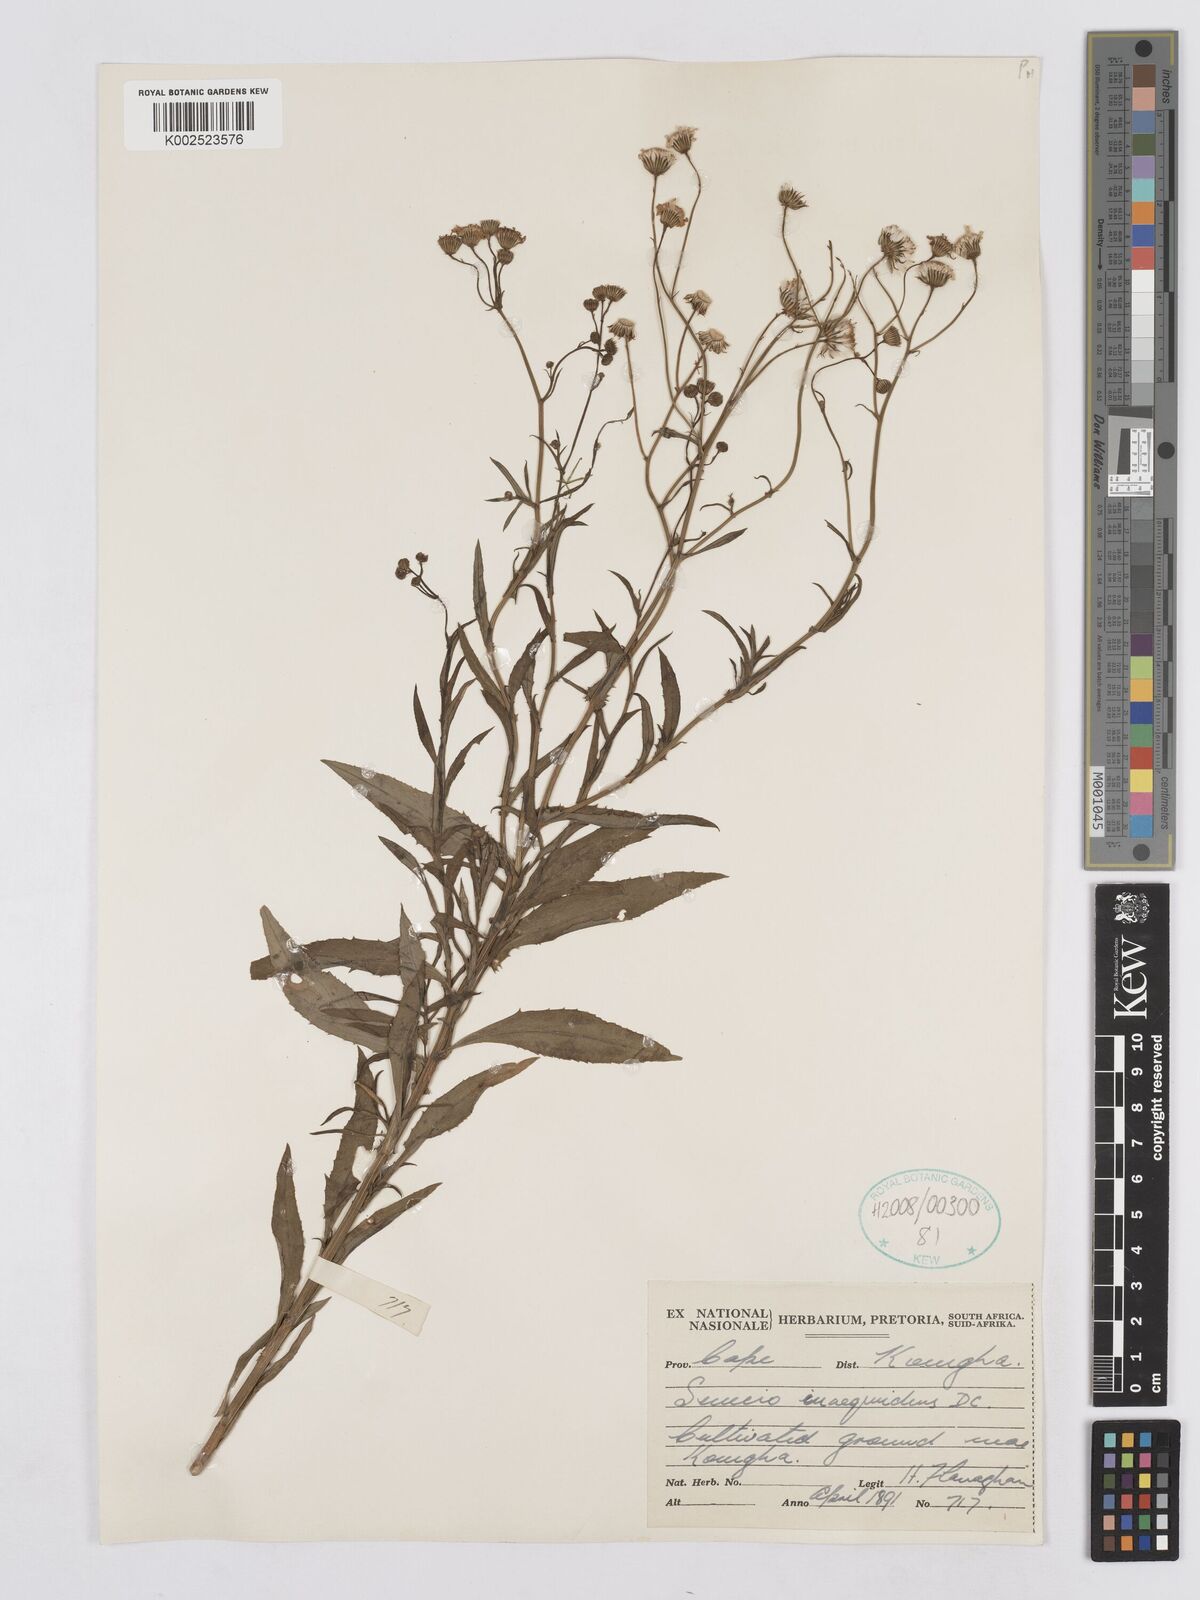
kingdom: Plantae
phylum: Tracheophyta
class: Magnoliopsida
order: Asterales
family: Asteraceae
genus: Senecio
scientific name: Senecio inaequidens
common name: Narrow-leaved ragwort
